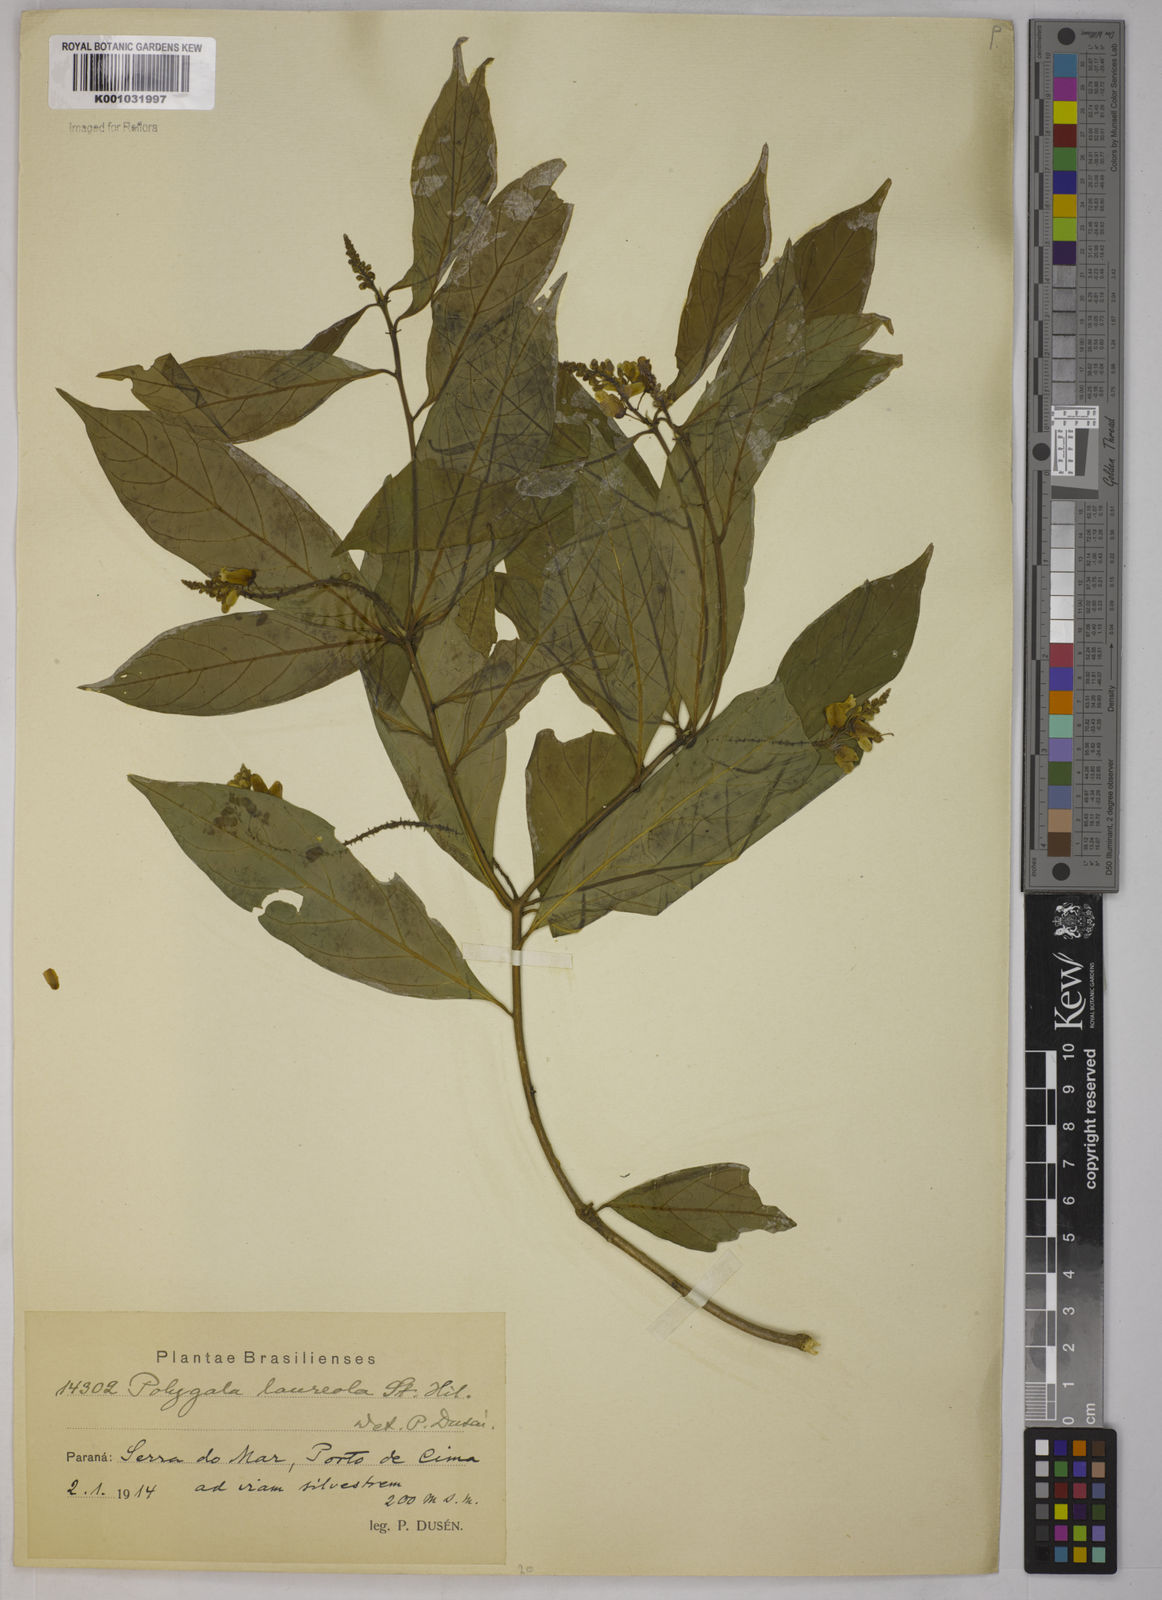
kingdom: Plantae
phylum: Tracheophyta
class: Magnoliopsida
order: Fabales
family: Polygalaceae
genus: Caamembeca
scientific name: Caamembeca salicifolia
